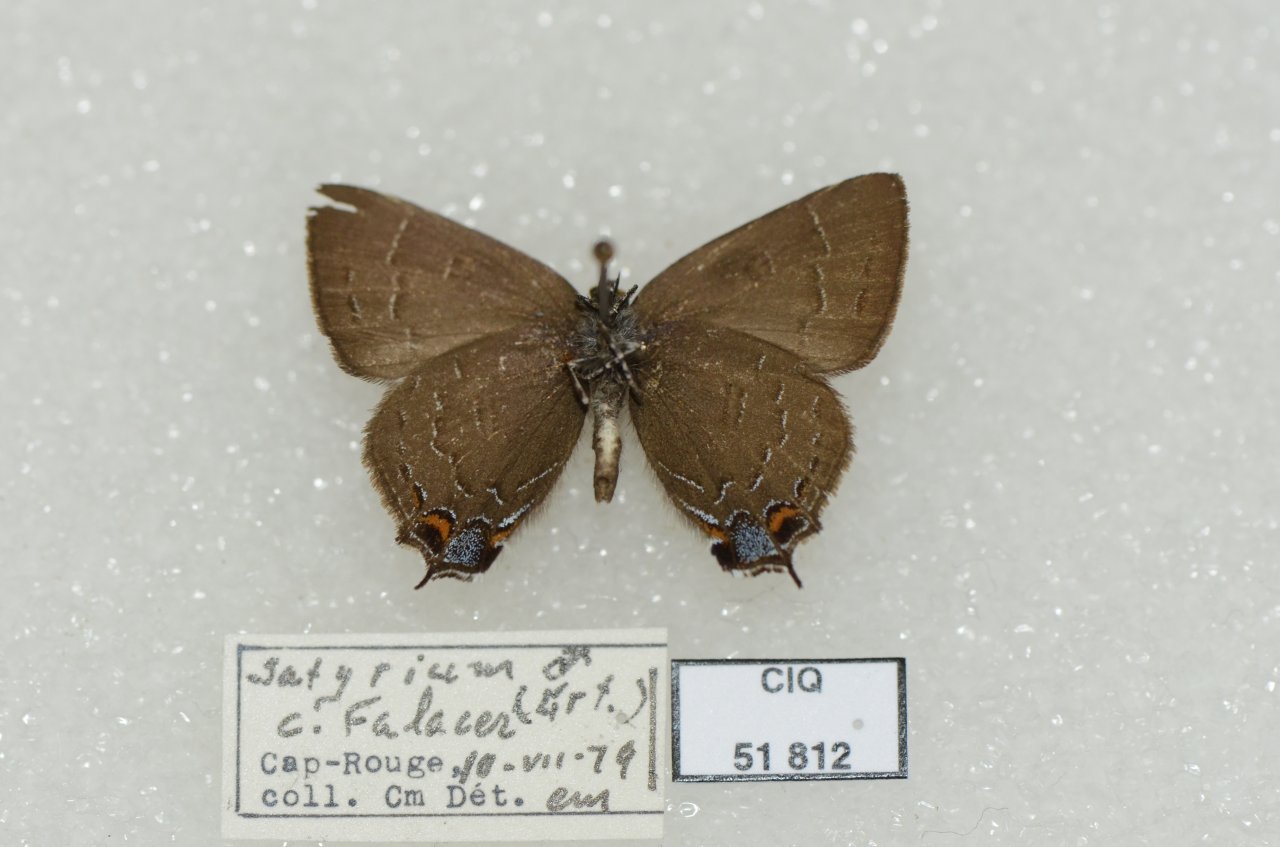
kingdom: Animalia
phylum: Arthropoda
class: Insecta
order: Lepidoptera
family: Lycaenidae
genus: Satyrium
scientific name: Satyrium calanus
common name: Banded Hairstreak
